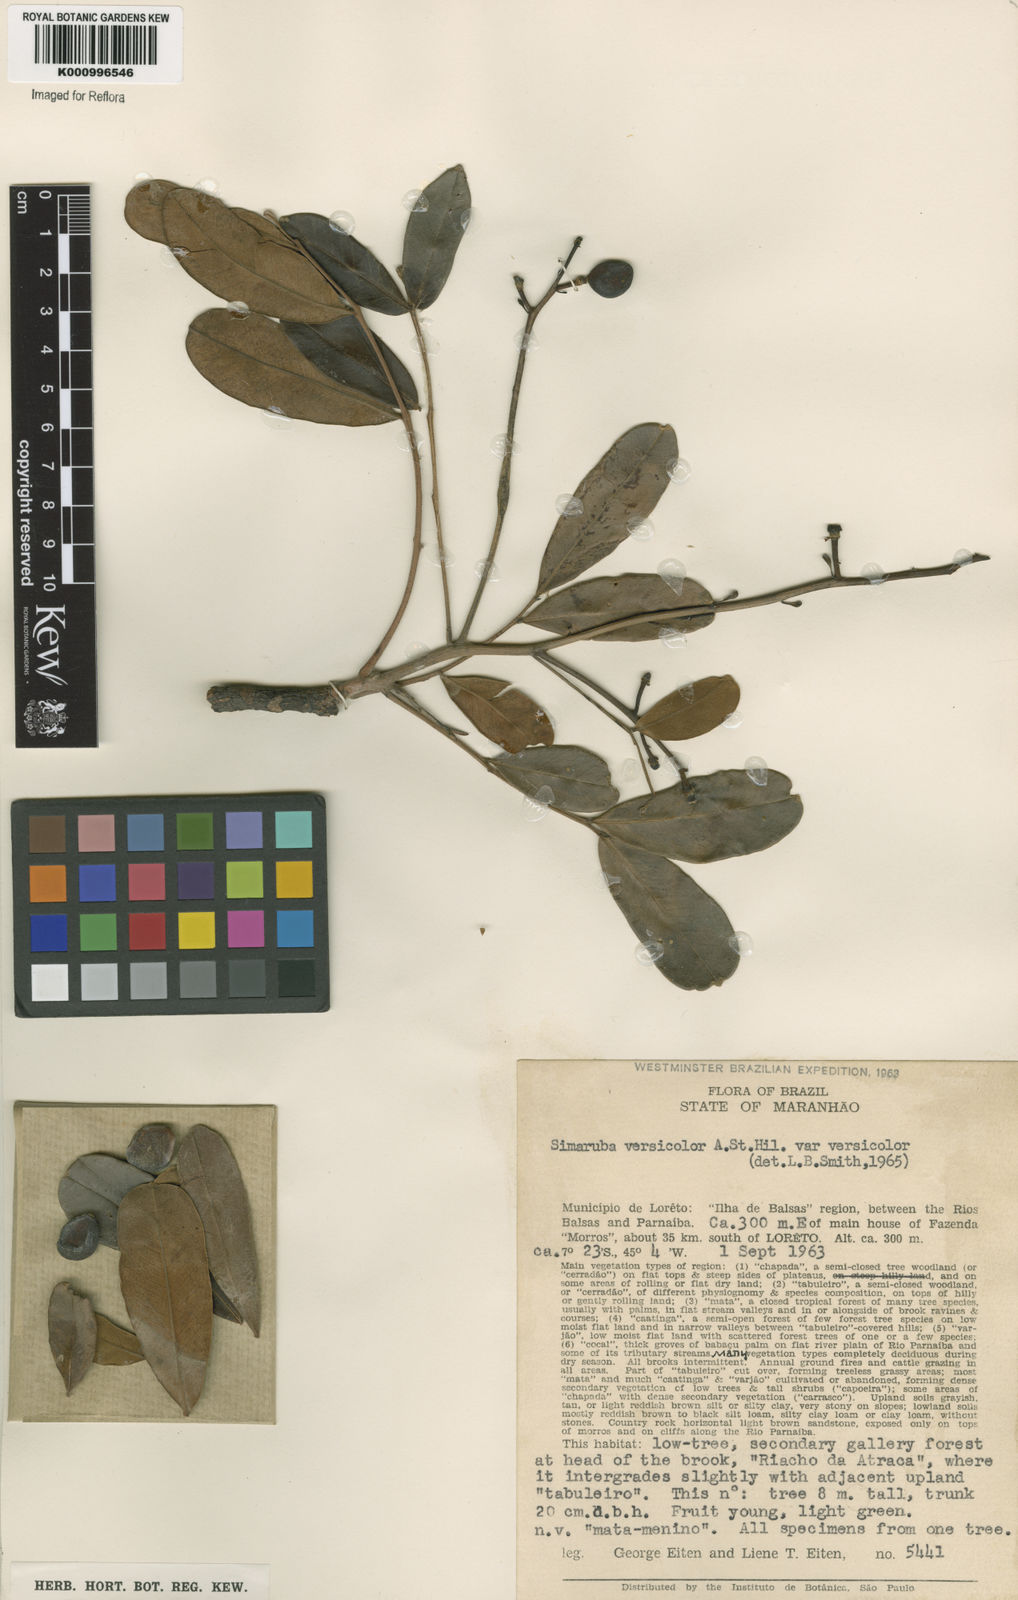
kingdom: Plantae
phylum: Tracheophyta
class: Magnoliopsida
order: Sapindales
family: Simaroubaceae
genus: Simarouba
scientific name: Simarouba versicolor
